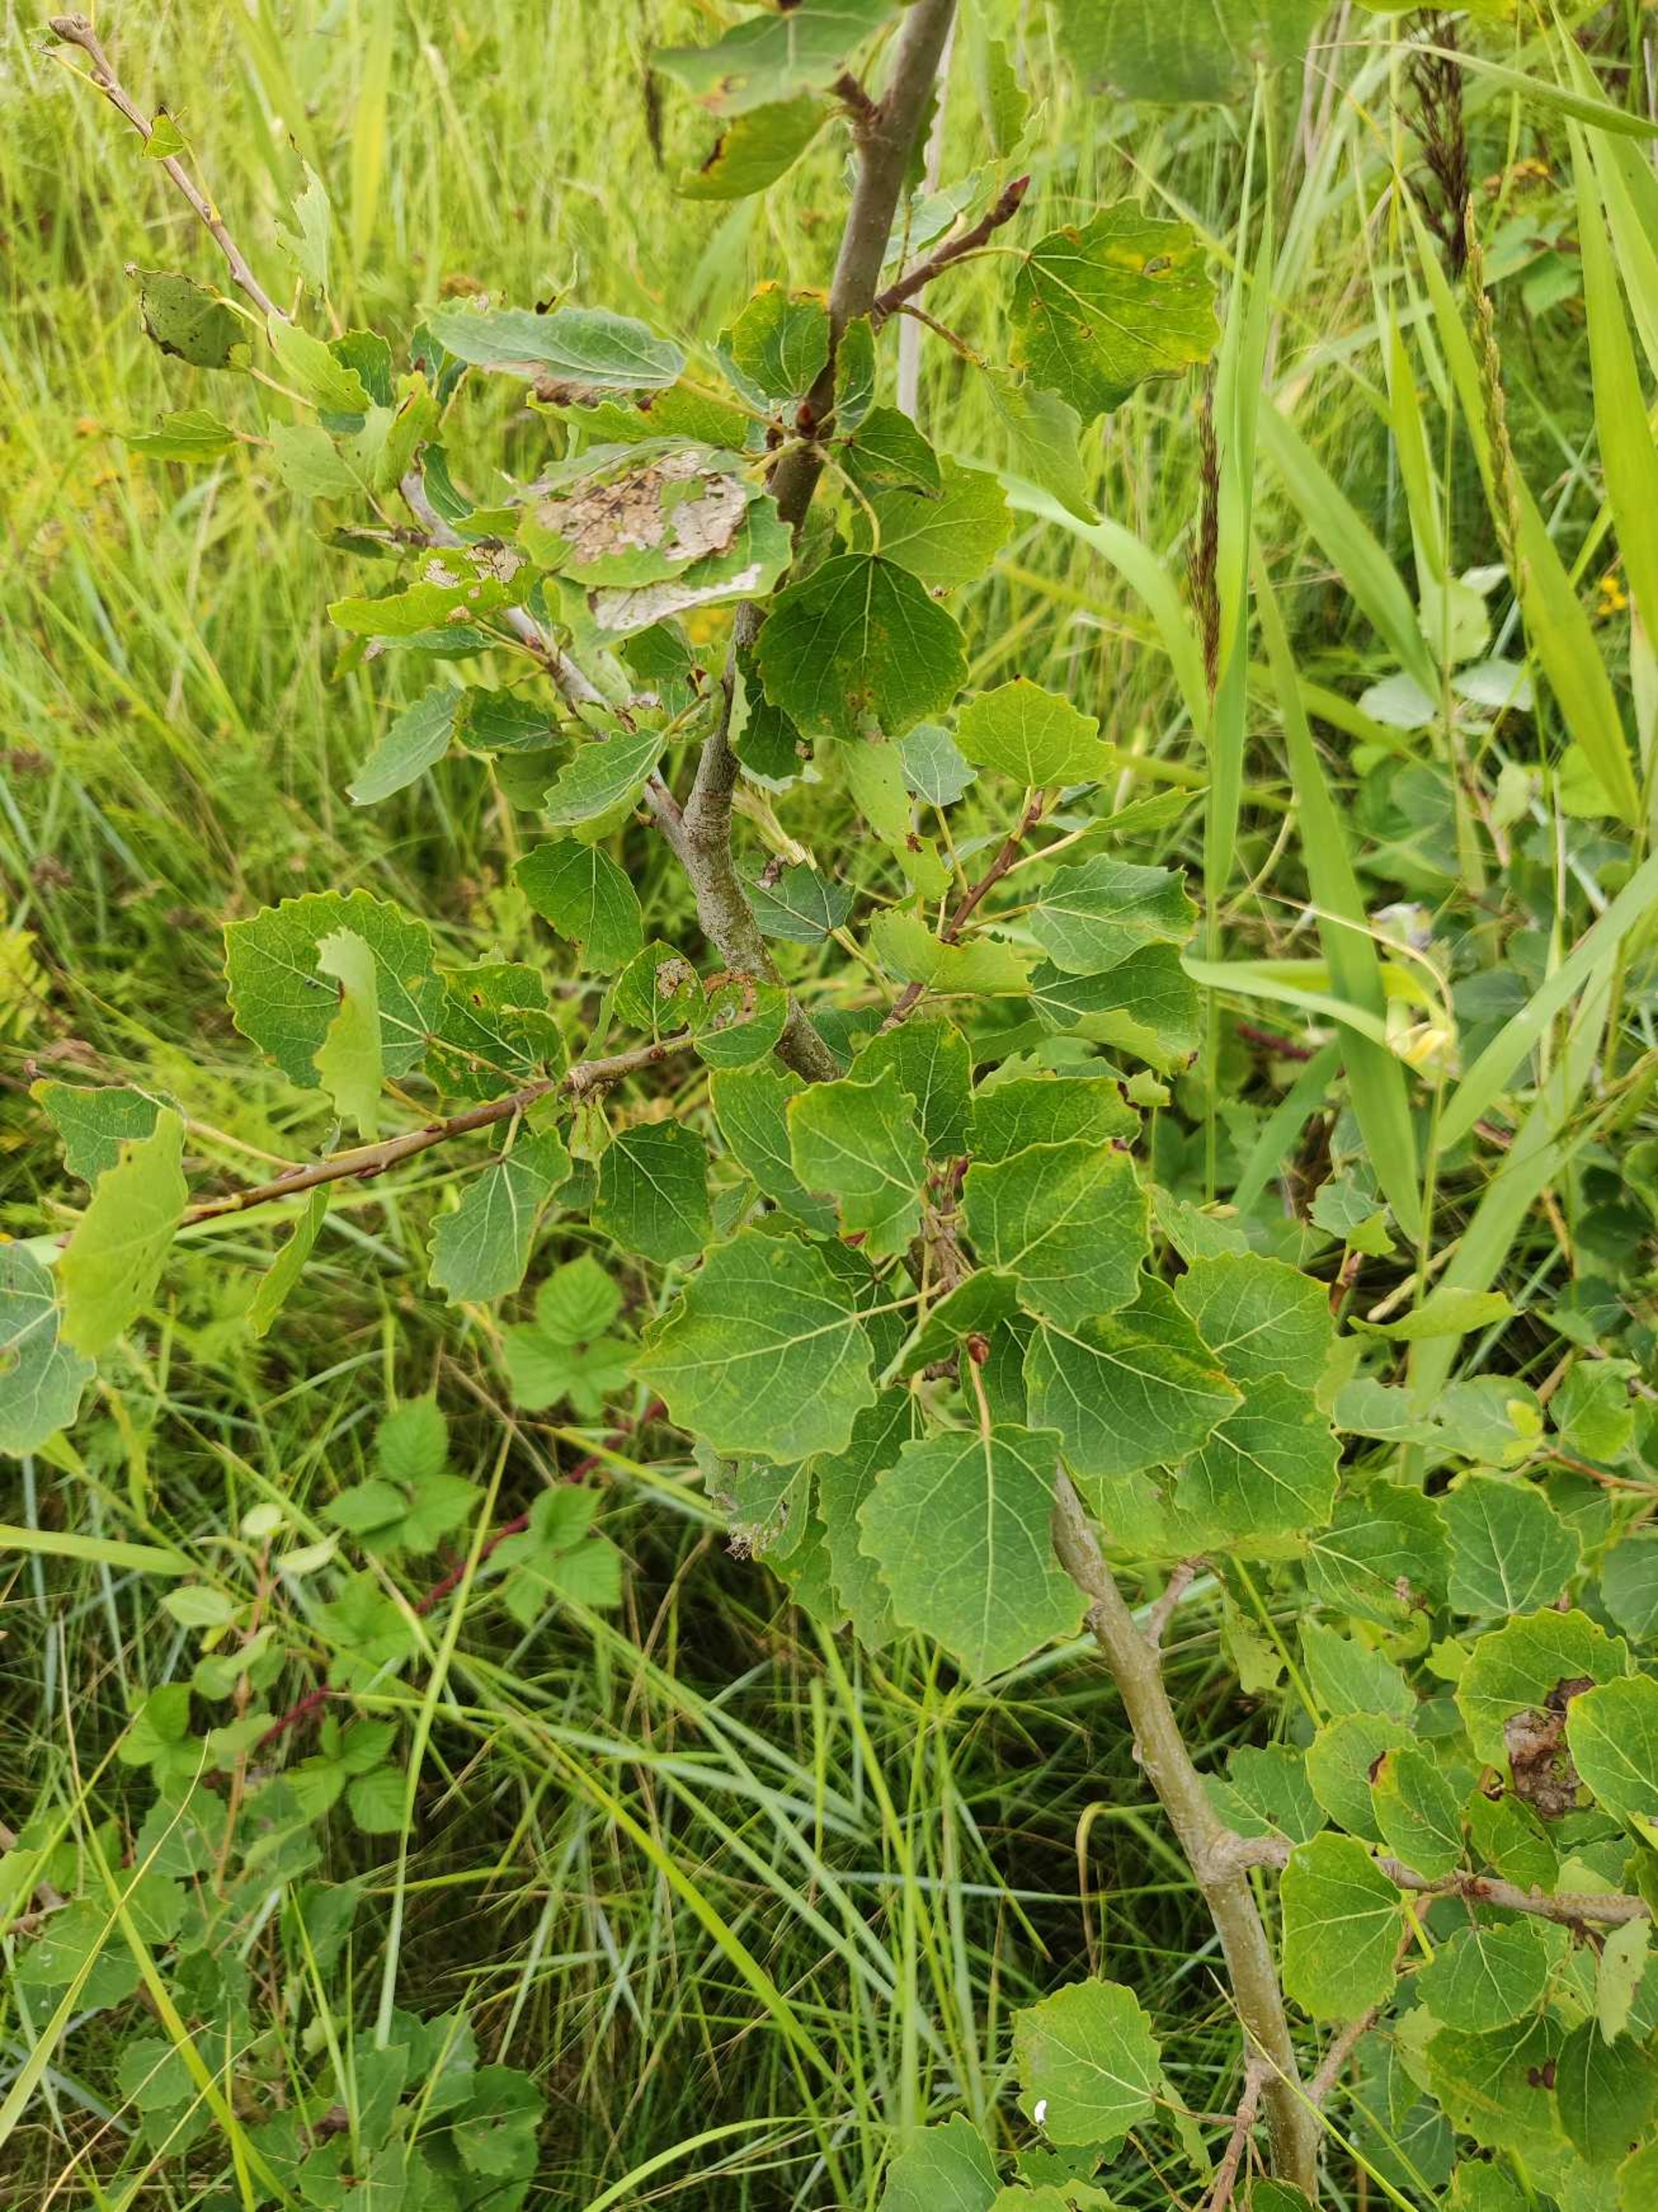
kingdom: Plantae
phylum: Tracheophyta
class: Magnoliopsida
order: Malpighiales
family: Salicaceae
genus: Populus
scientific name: Populus tremula
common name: Bævreasp
